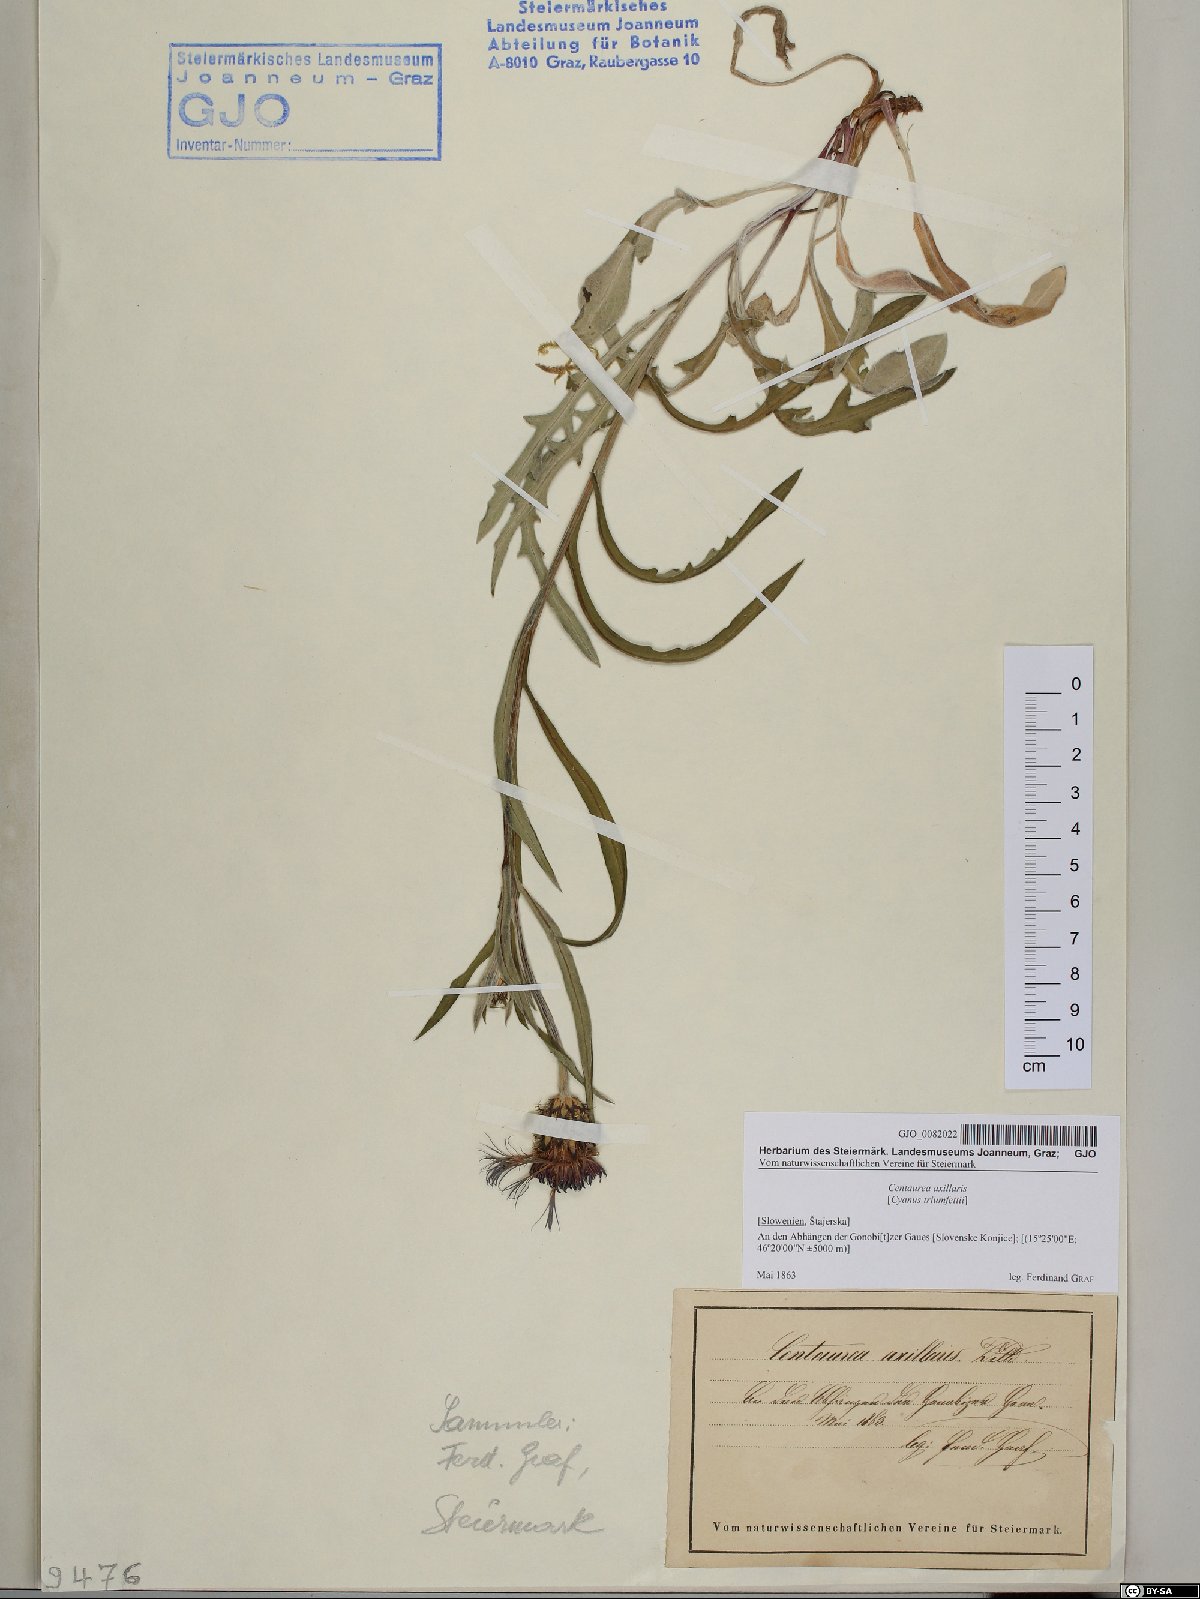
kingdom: Plantae
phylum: Tracheophyta
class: Magnoliopsida
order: Asterales
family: Asteraceae
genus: Centaurea
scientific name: Centaurea triumfettii
